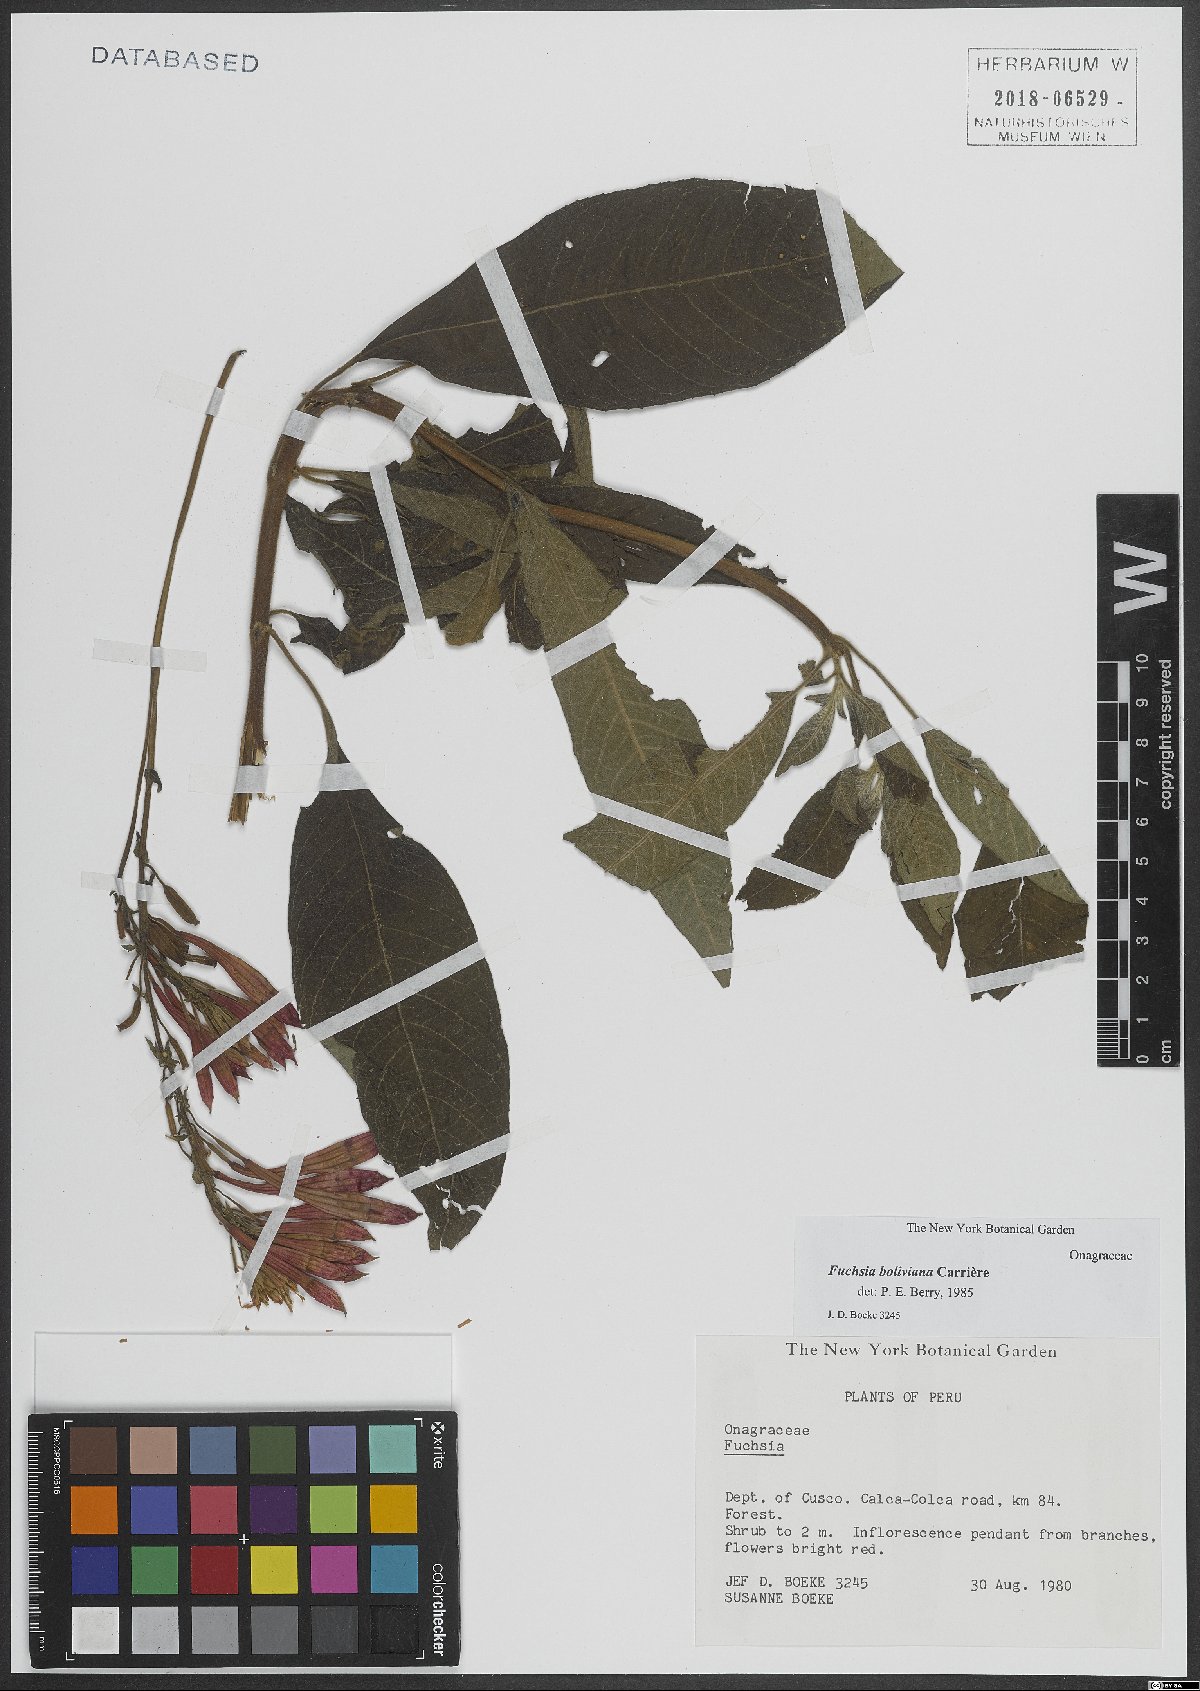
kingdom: Plantae
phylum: Tracheophyta
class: Magnoliopsida
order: Myrtales
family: Onagraceae
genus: Fuchsia
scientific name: Fuchsia boliviana
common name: Bolivian fuchsia
